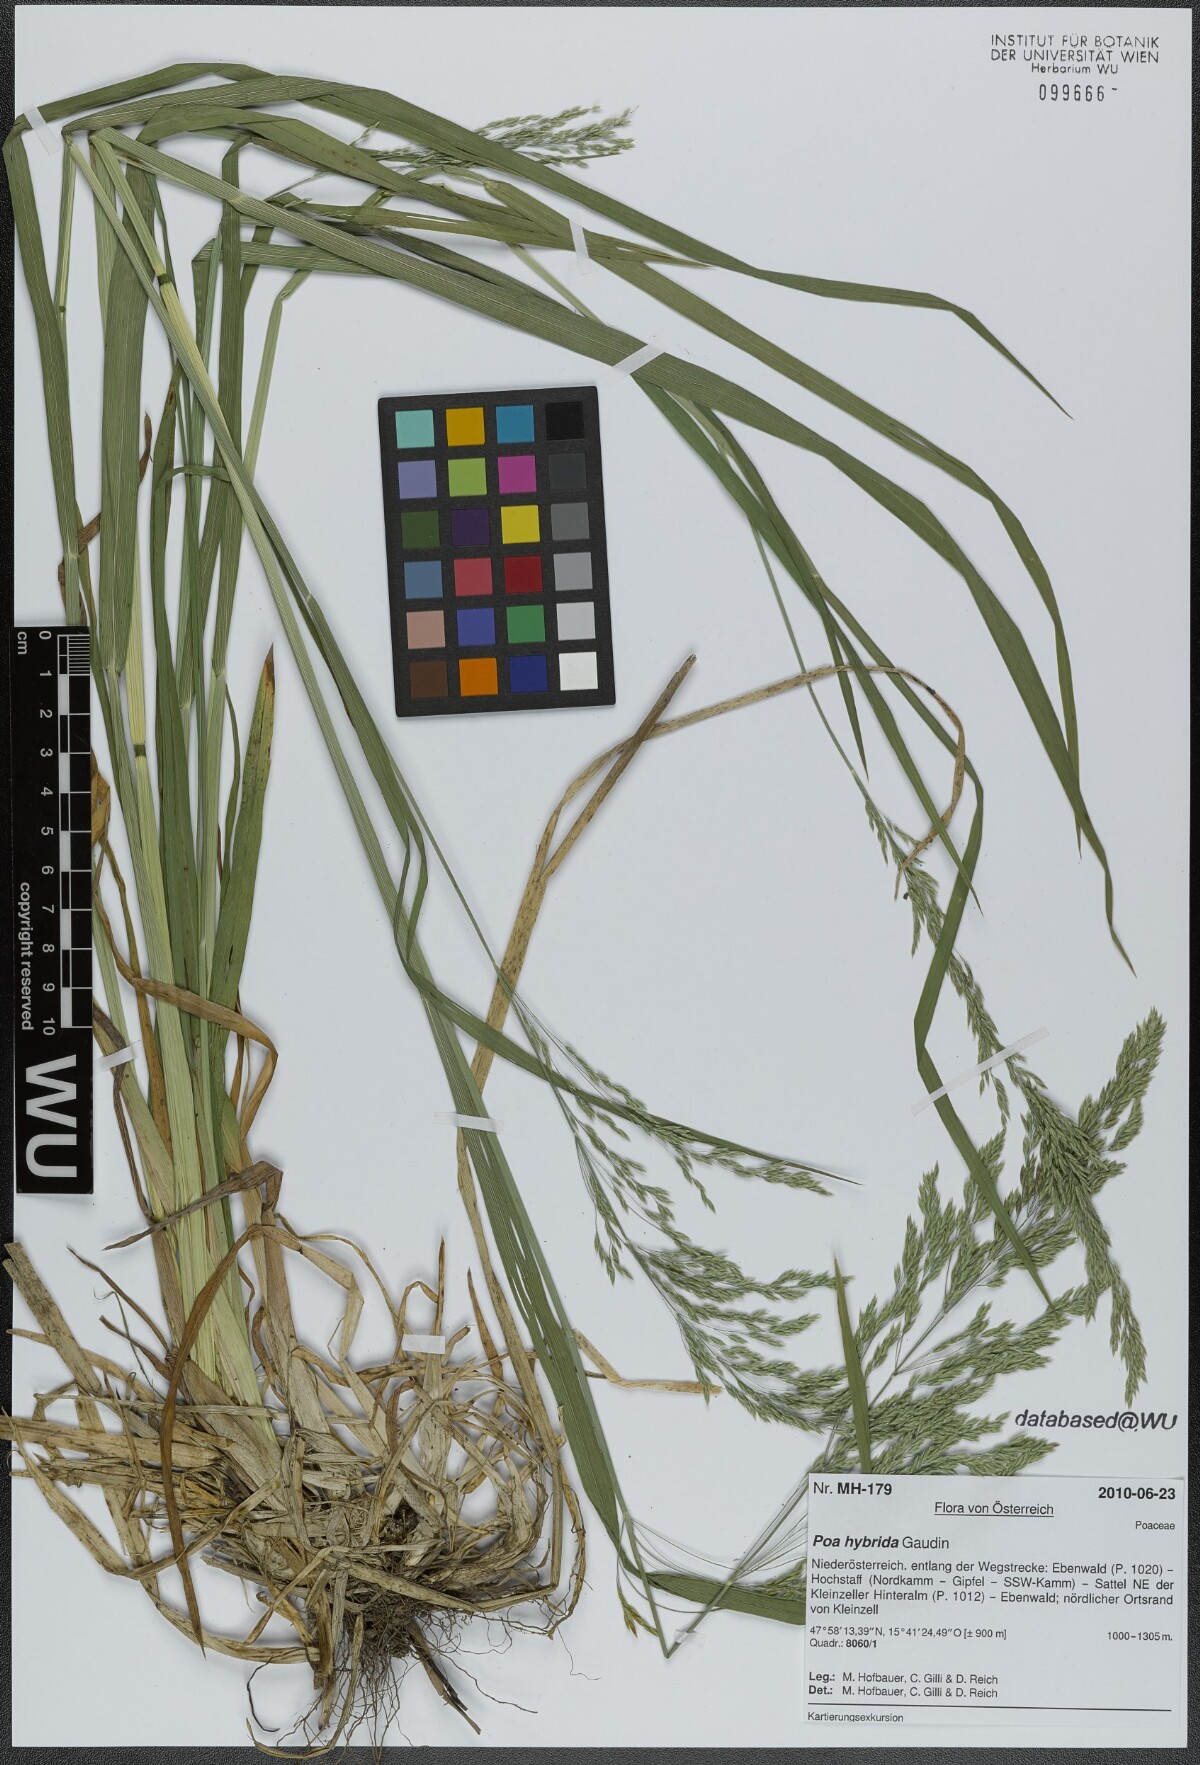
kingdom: Plantae
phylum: Tracheophyta
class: Liliopsida
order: Poales
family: Poaceae
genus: Poa
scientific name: Poa hybrida
